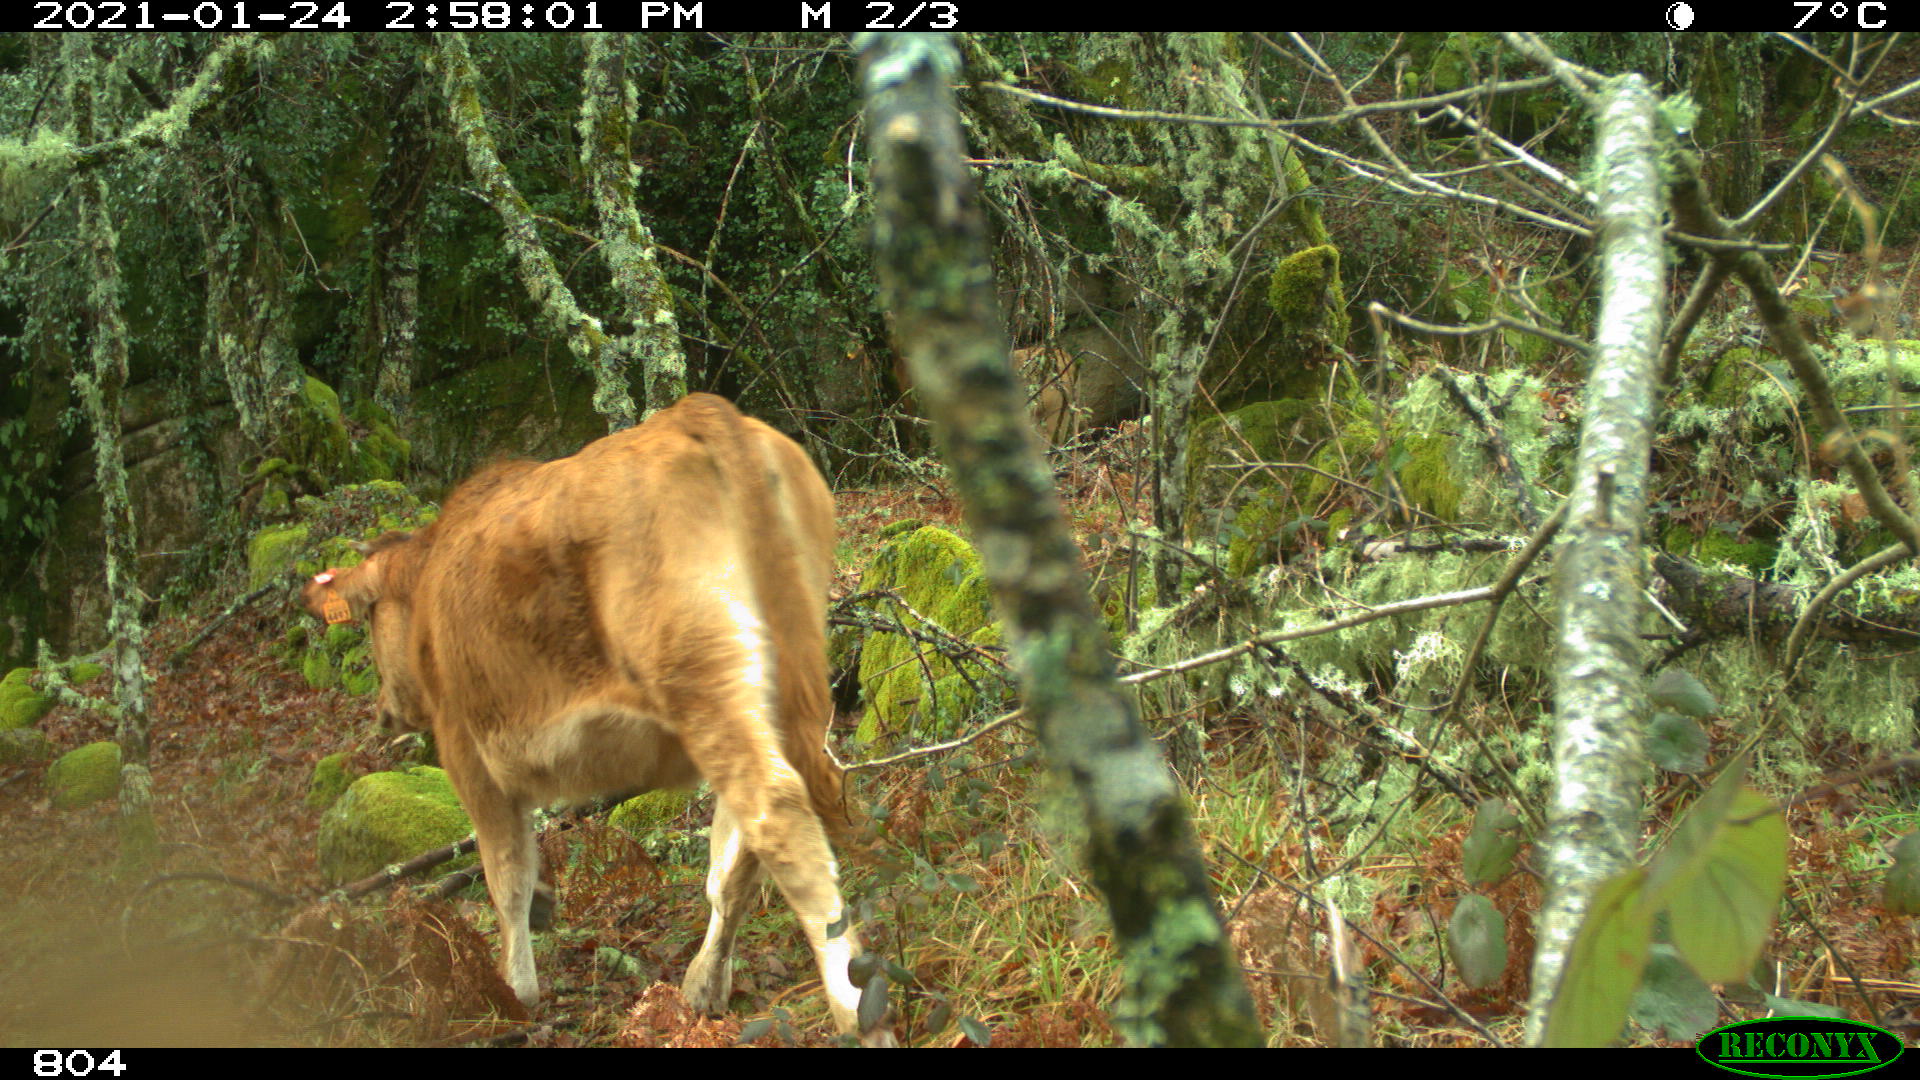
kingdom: Animalia
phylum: Chordata
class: Mammalia
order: Artiodactyla
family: Bovidae
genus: Bos
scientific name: Bos taurus
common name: Domesticated cattle
